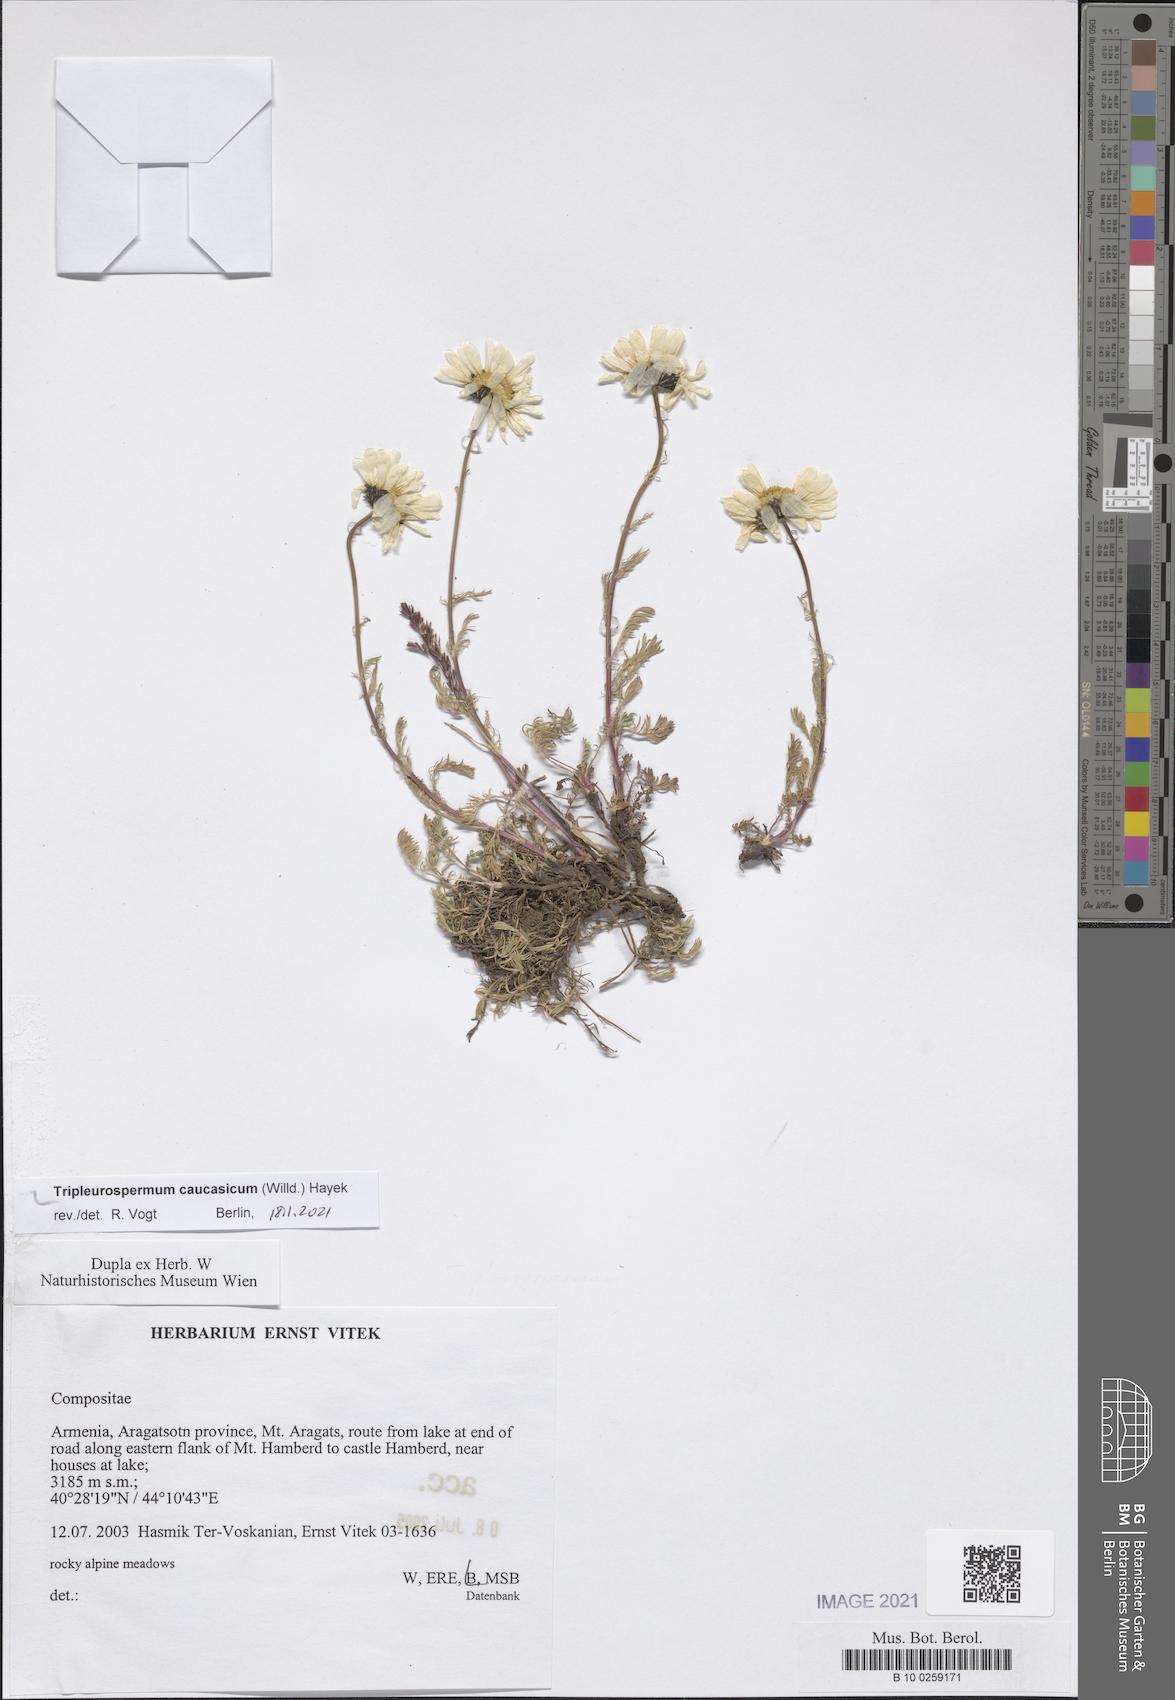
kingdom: Plantae
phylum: Tracheophyta
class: Magnoliopsida
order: Asterales
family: Asteraceae
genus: Tripleurospermum
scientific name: Tripleurospermum caucasicum
